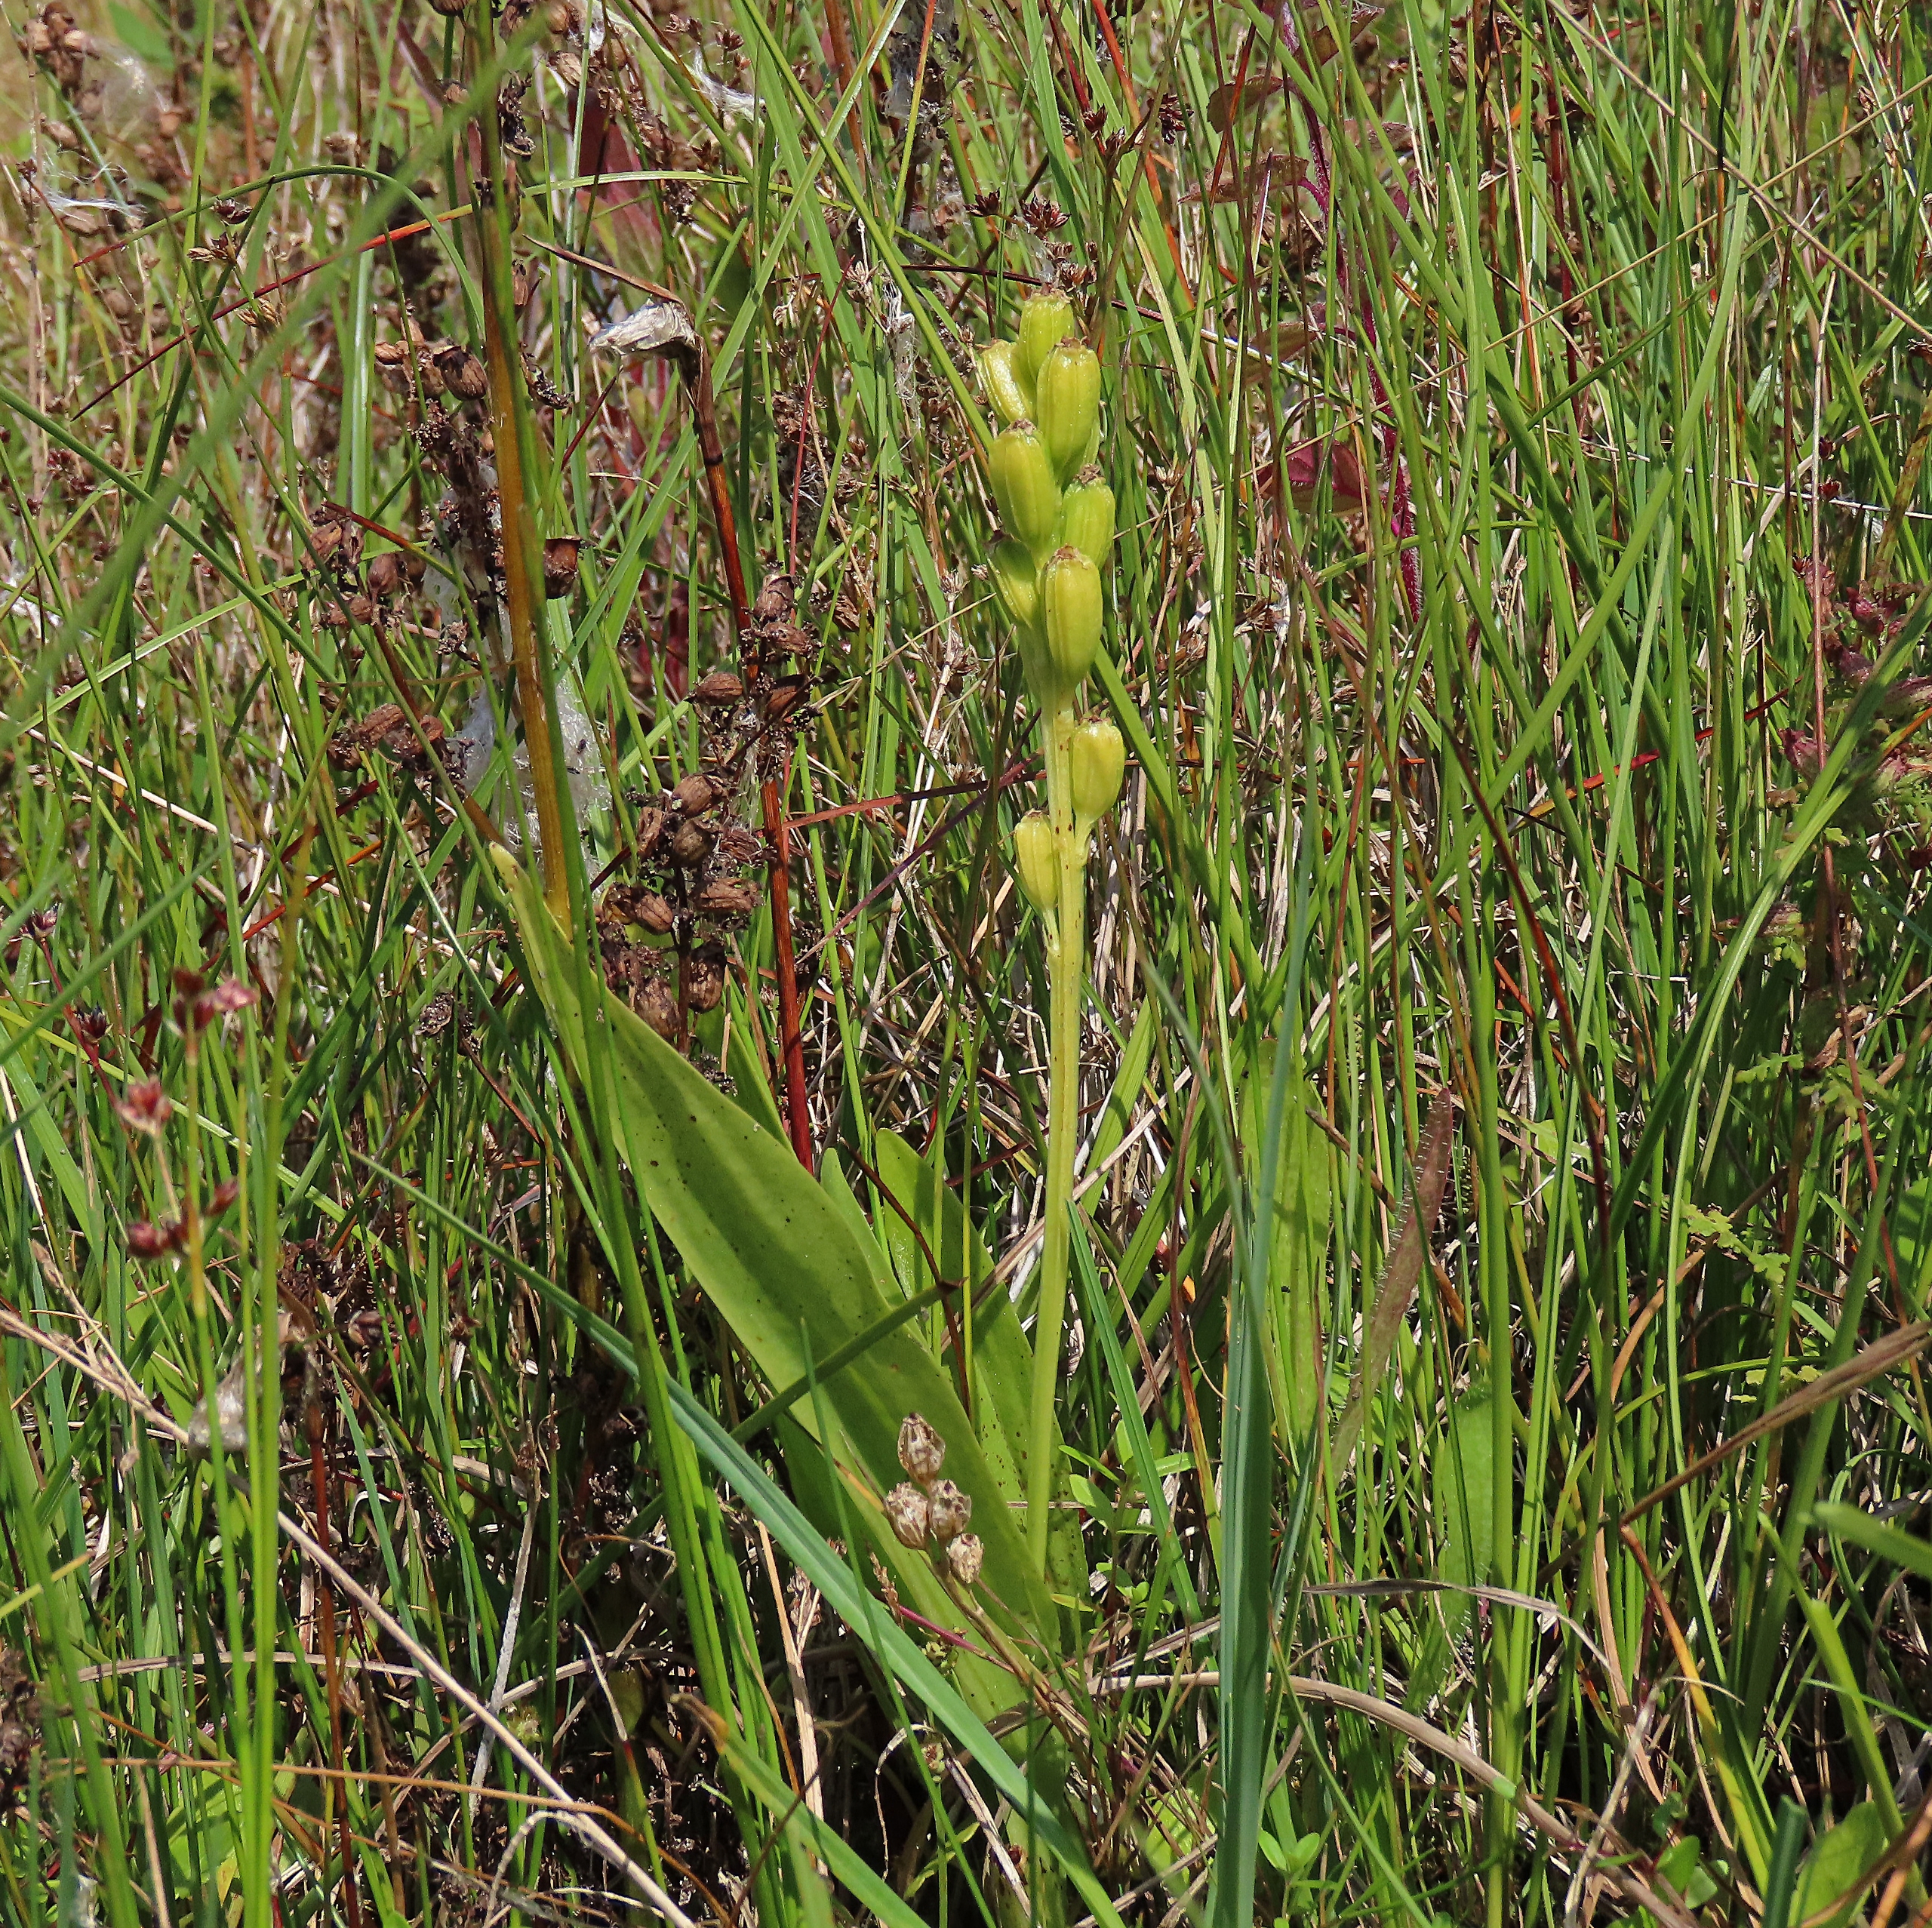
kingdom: Animalia
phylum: Arthropoda
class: Insecta
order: Coleoptera
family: Curculionidae
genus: Liparis
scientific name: Liparis loeselii
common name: Mygblomst
